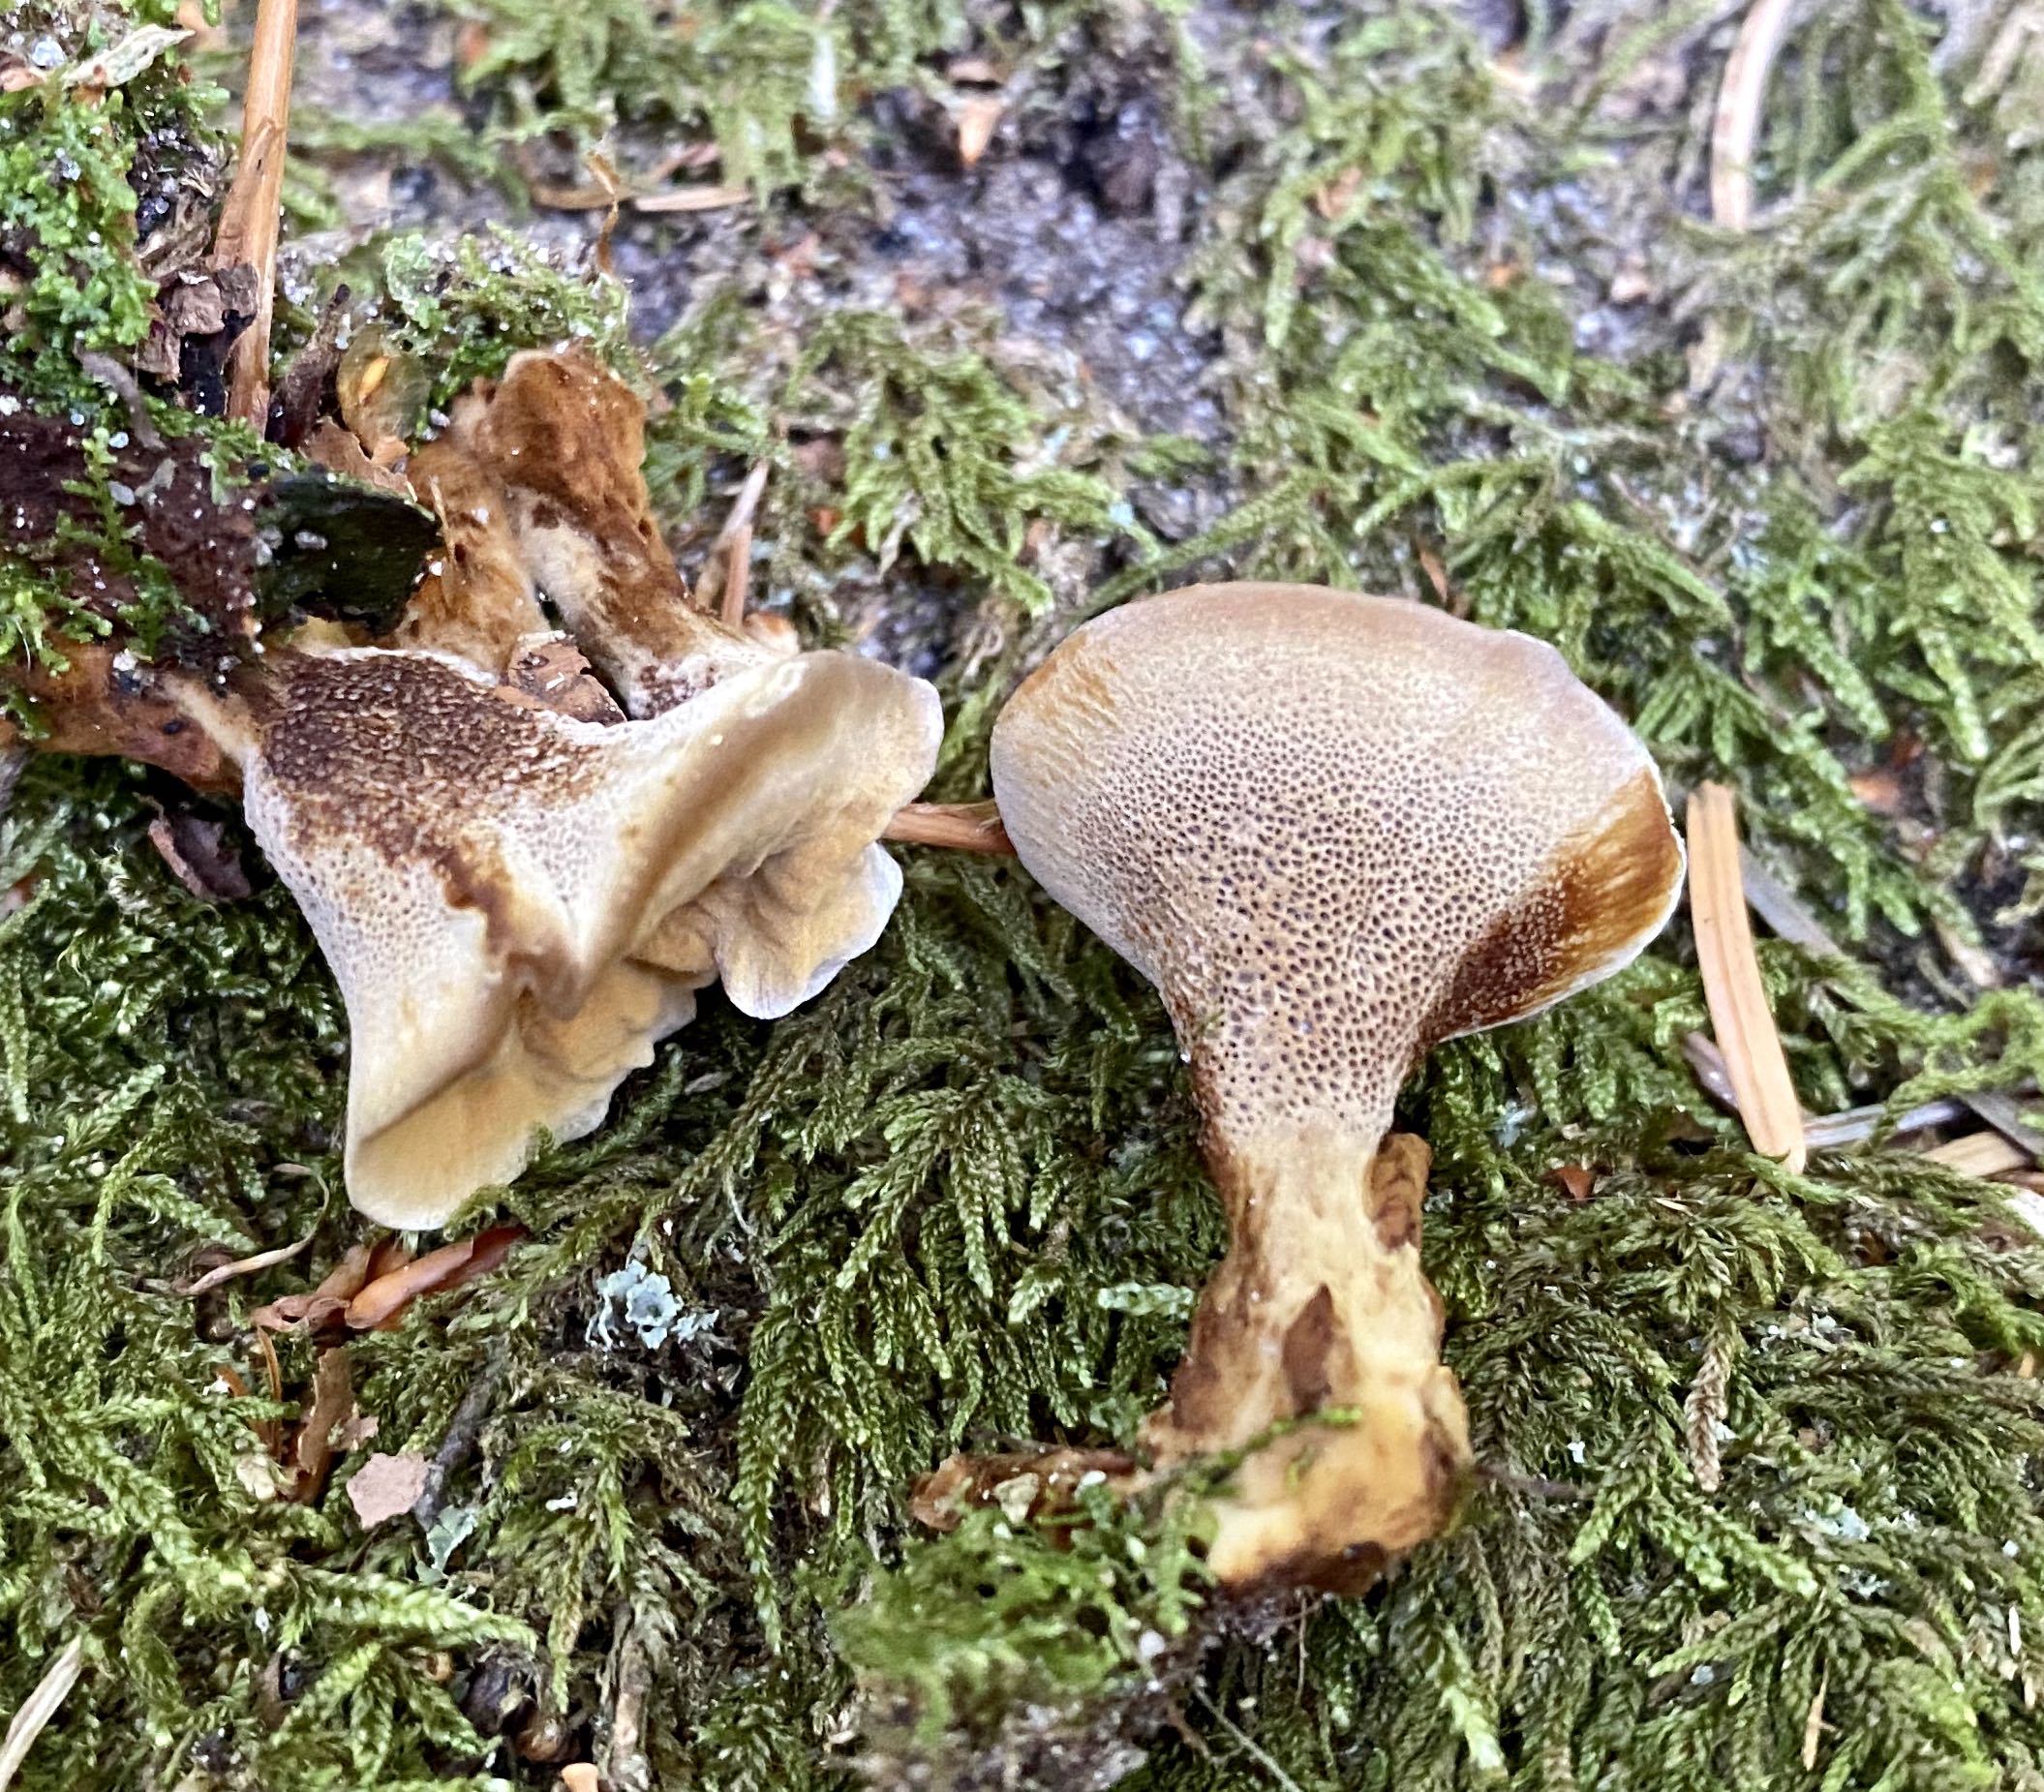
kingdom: Fungi
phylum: Basidiomycota
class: Agaricomycetes
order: Hymenochaetales
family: Hymenochaetaceae
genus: Coltricia
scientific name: Coltricia
